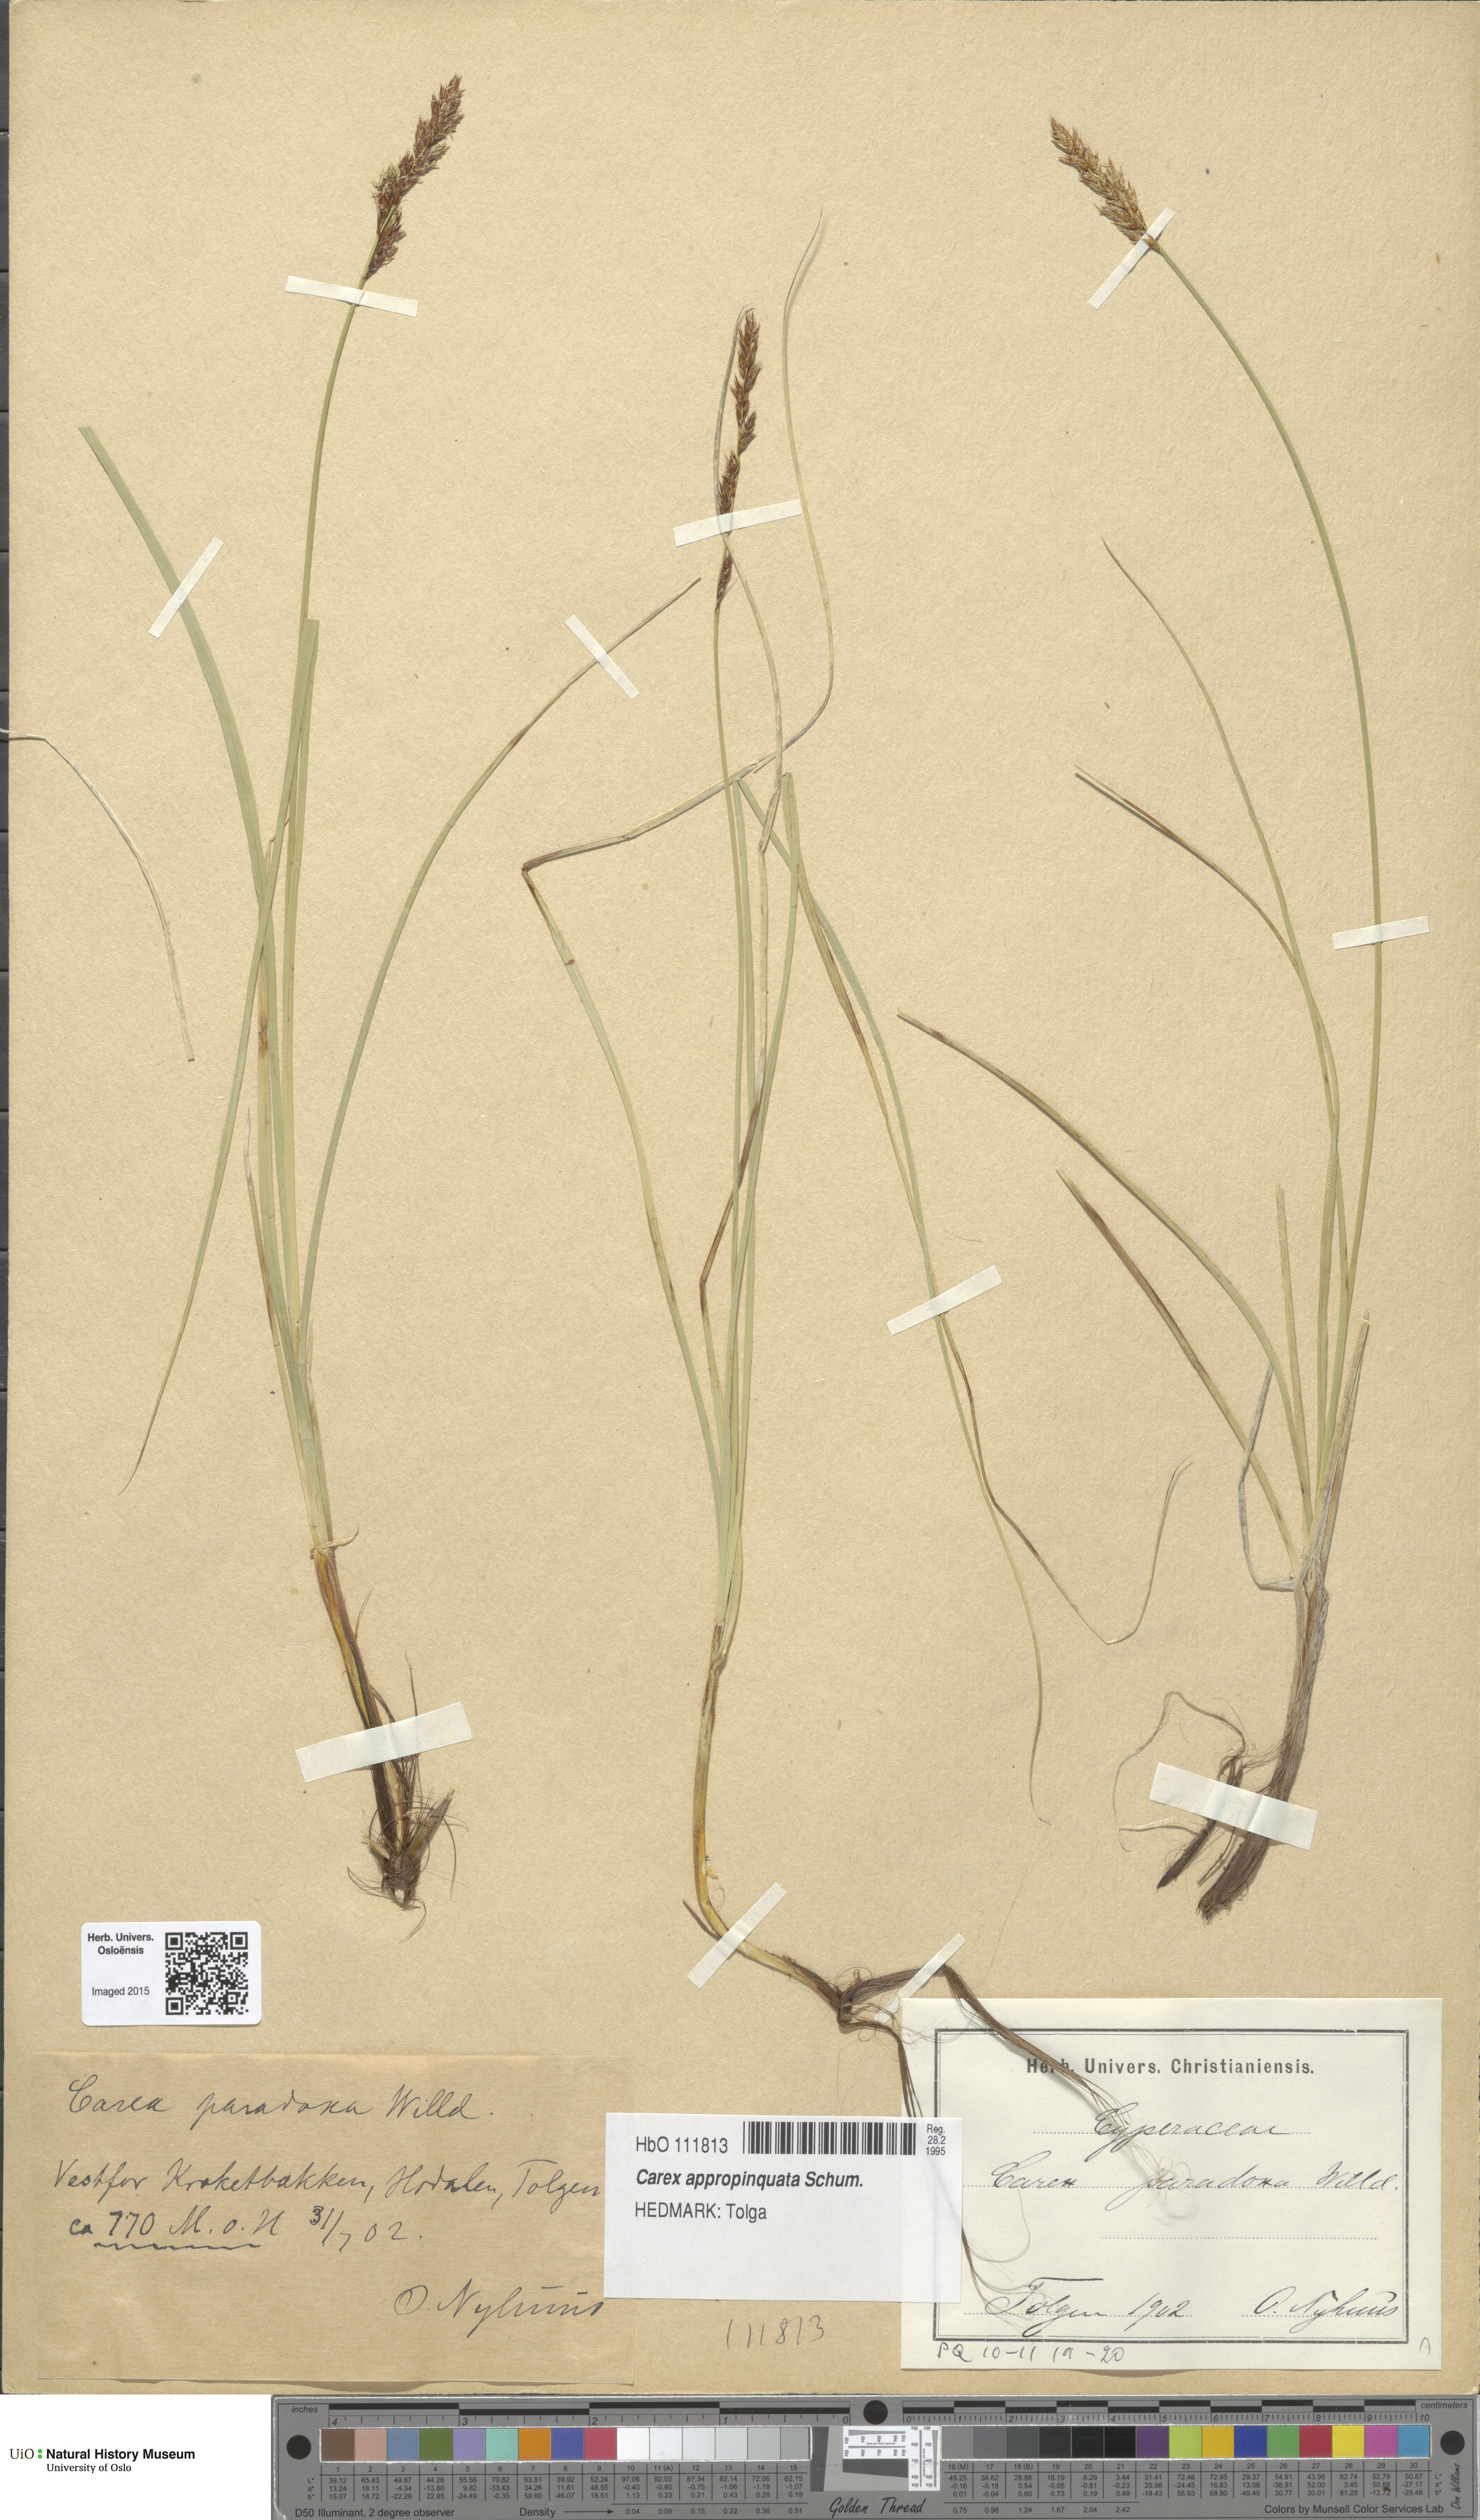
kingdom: Plantae
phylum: Tracheophyta
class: Liliopsida
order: Poales
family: Cyperaceae
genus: Carex
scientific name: Carex appropinquata
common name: Fibrous tussock-sedge
